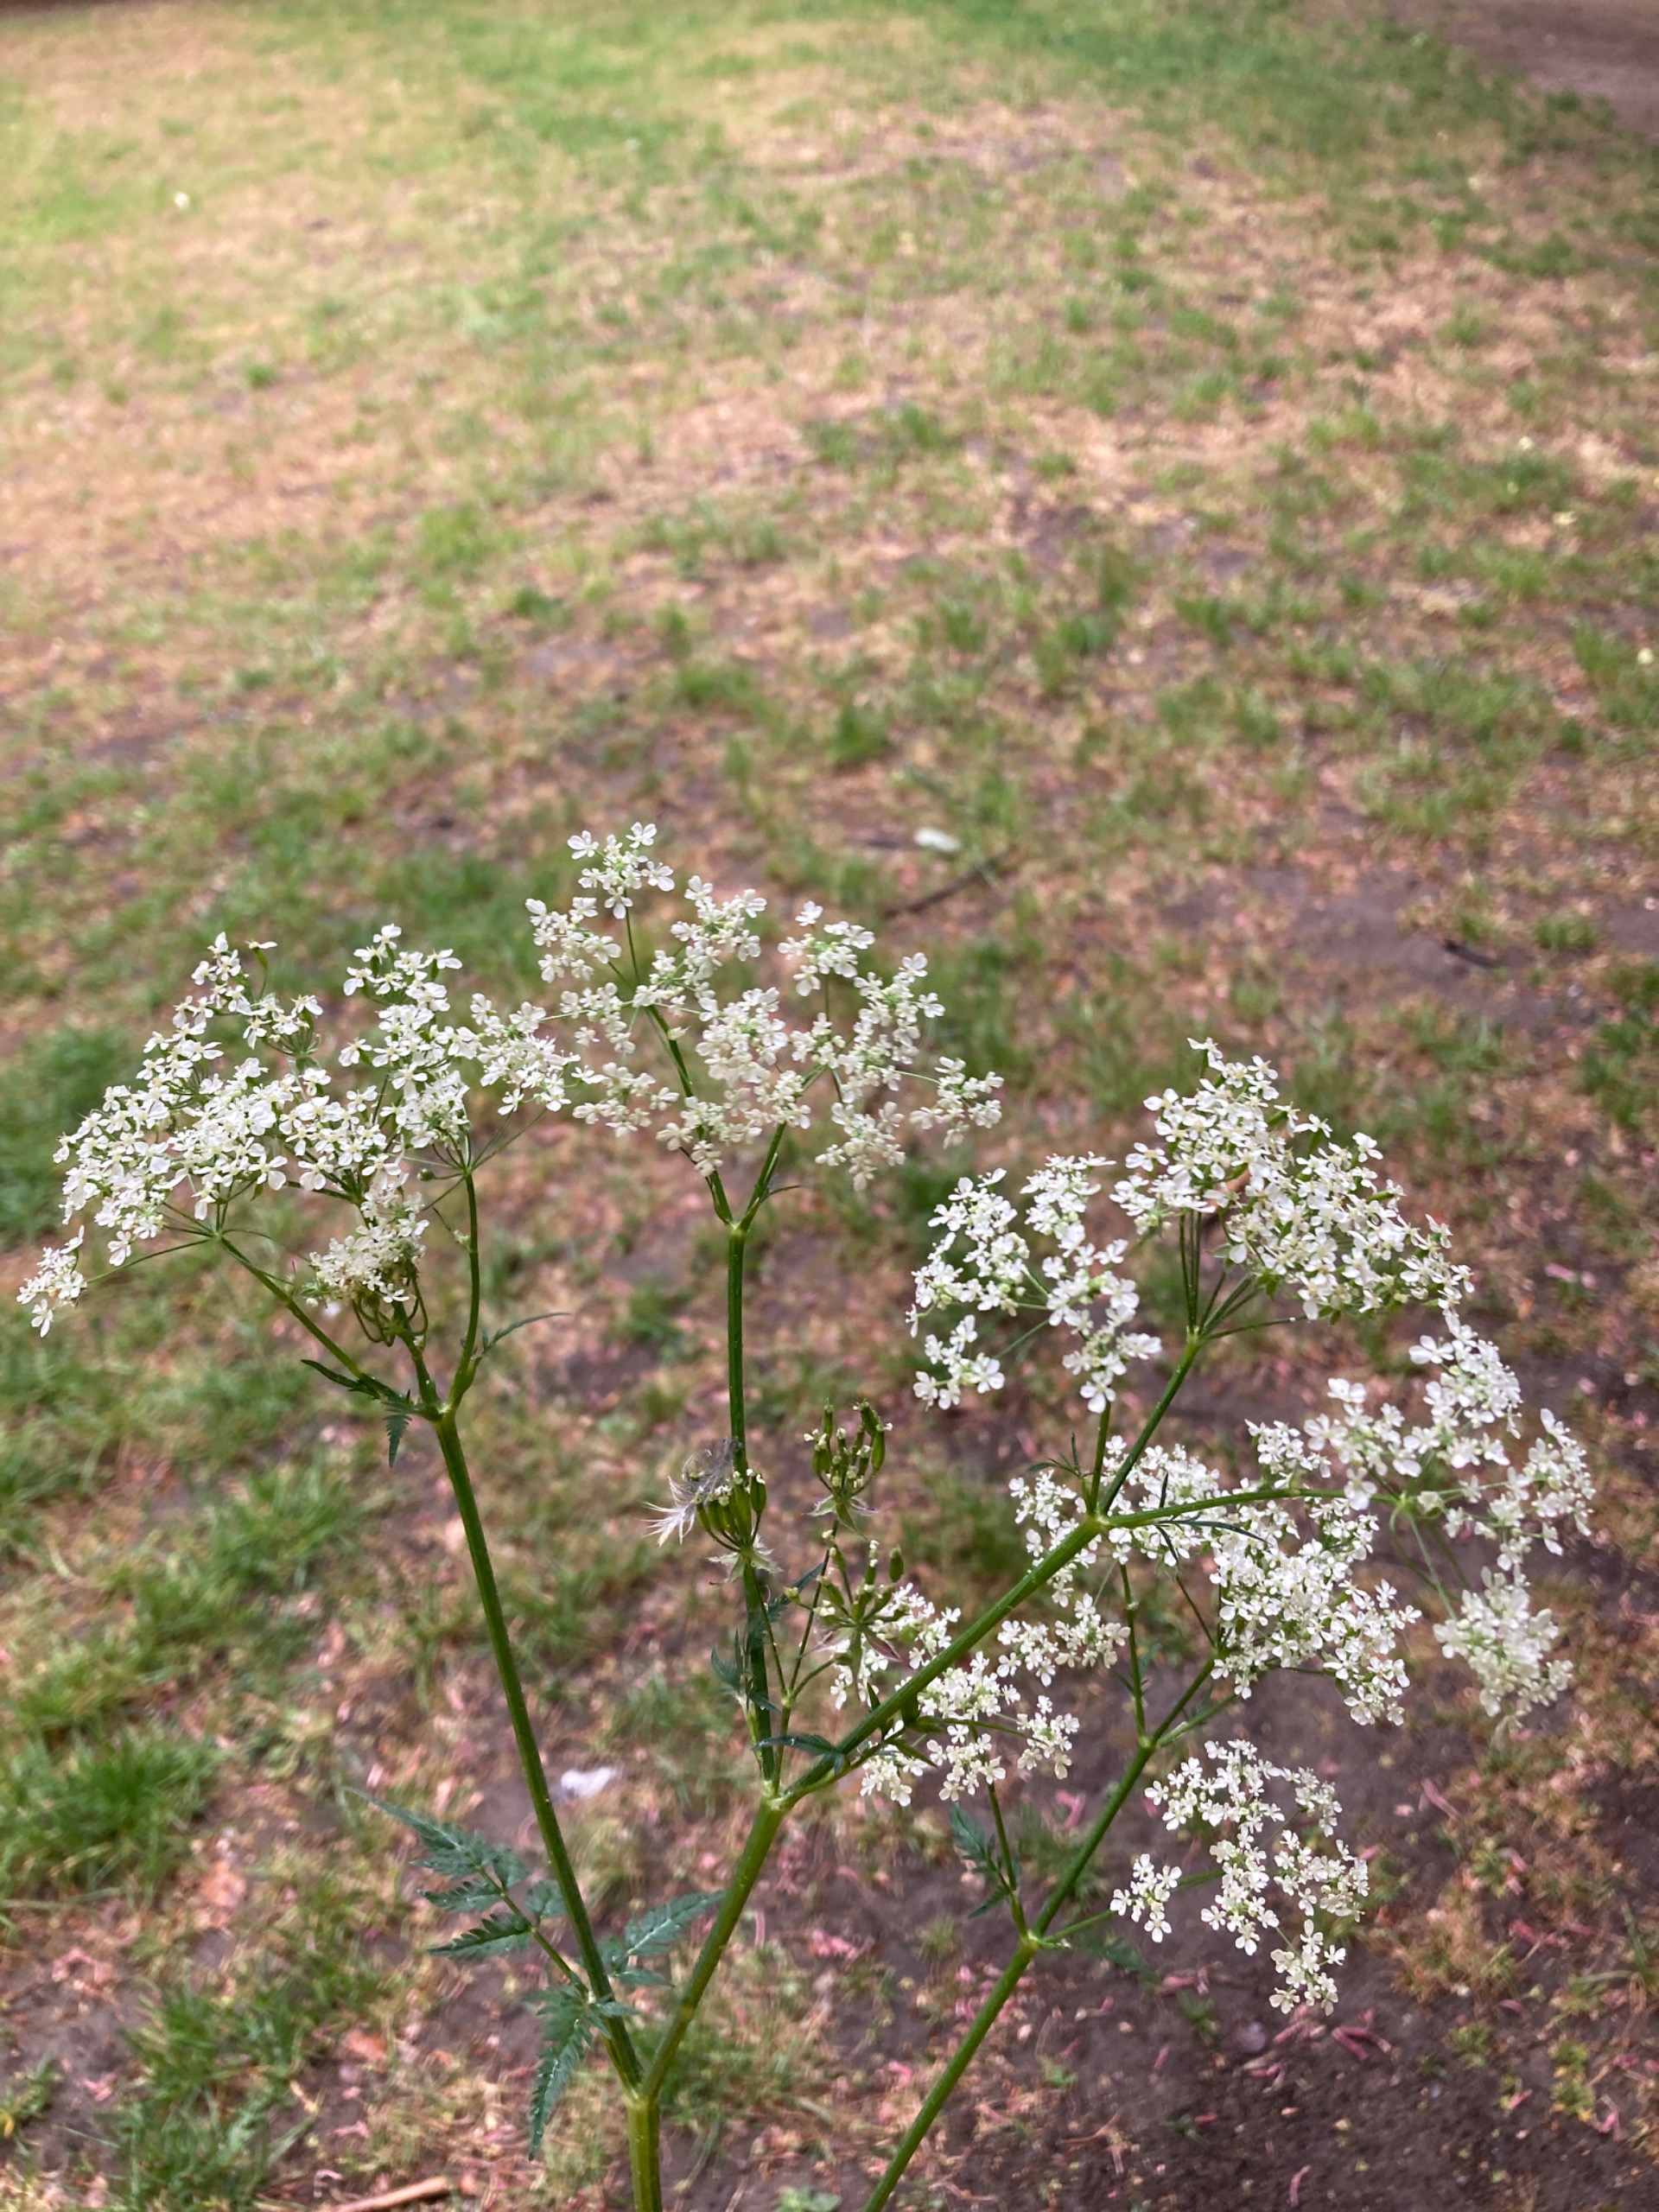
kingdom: Plantae
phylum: Tracheophyta
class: Magnoliopsida
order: Apiales
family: Apiaceae
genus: Anthriscus
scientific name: Anthriscus sylvestris
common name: Vild kørvel
